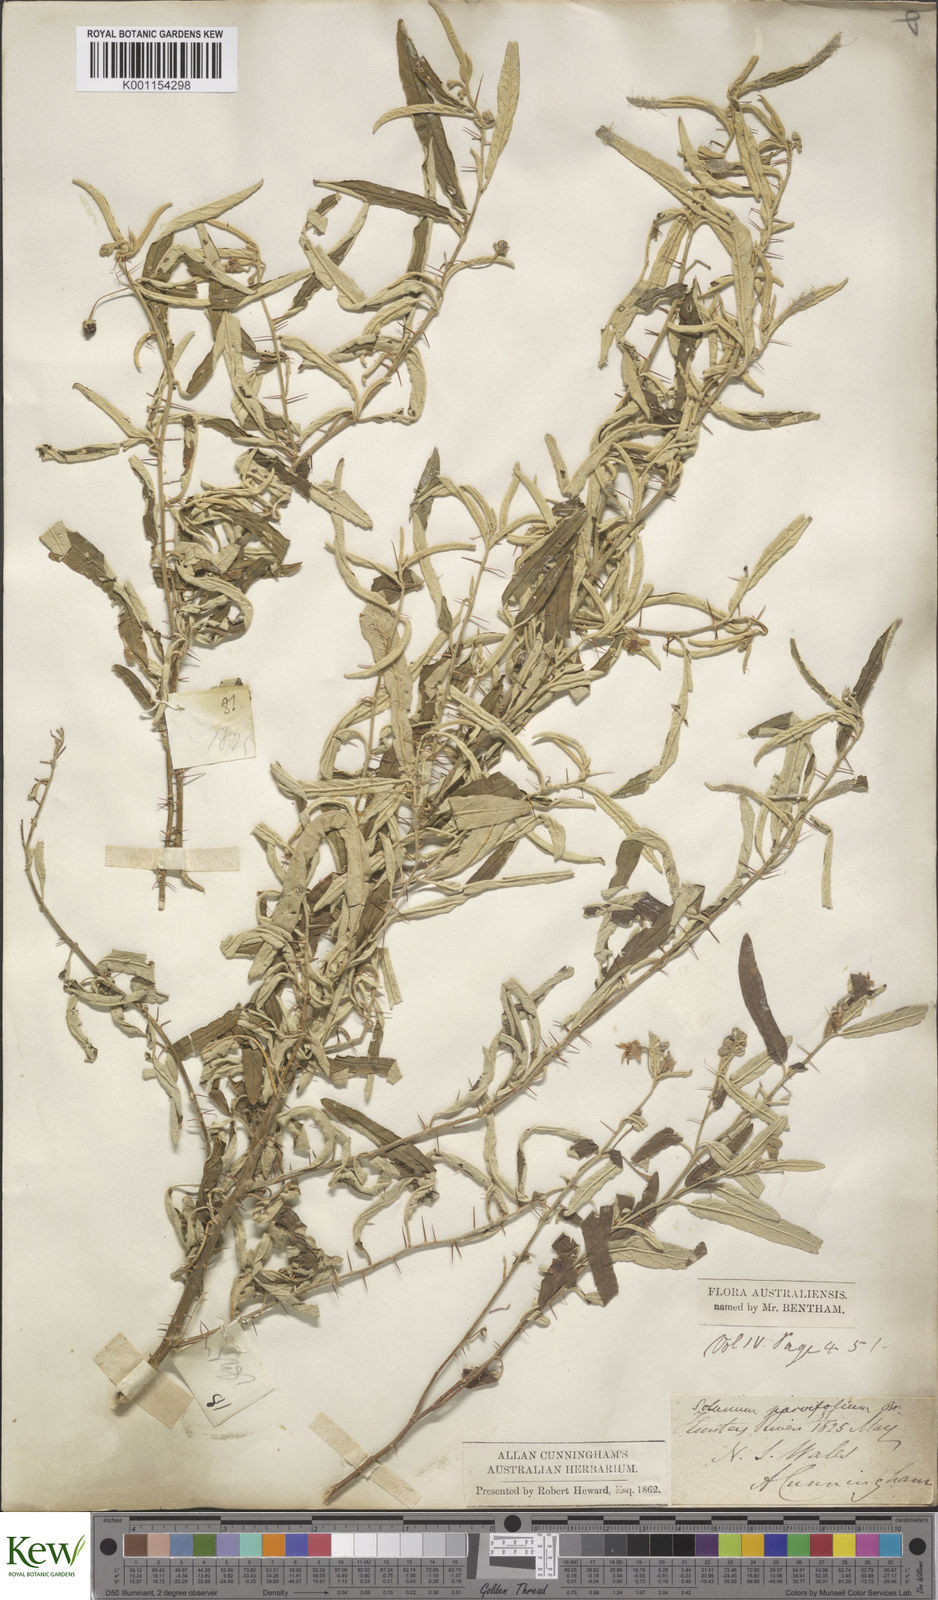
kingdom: Plantae
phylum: Tracheophyta
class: Magnoliopsida
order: Solanales
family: Solanaceae
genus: Solanum
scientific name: Solanum parvifolium
